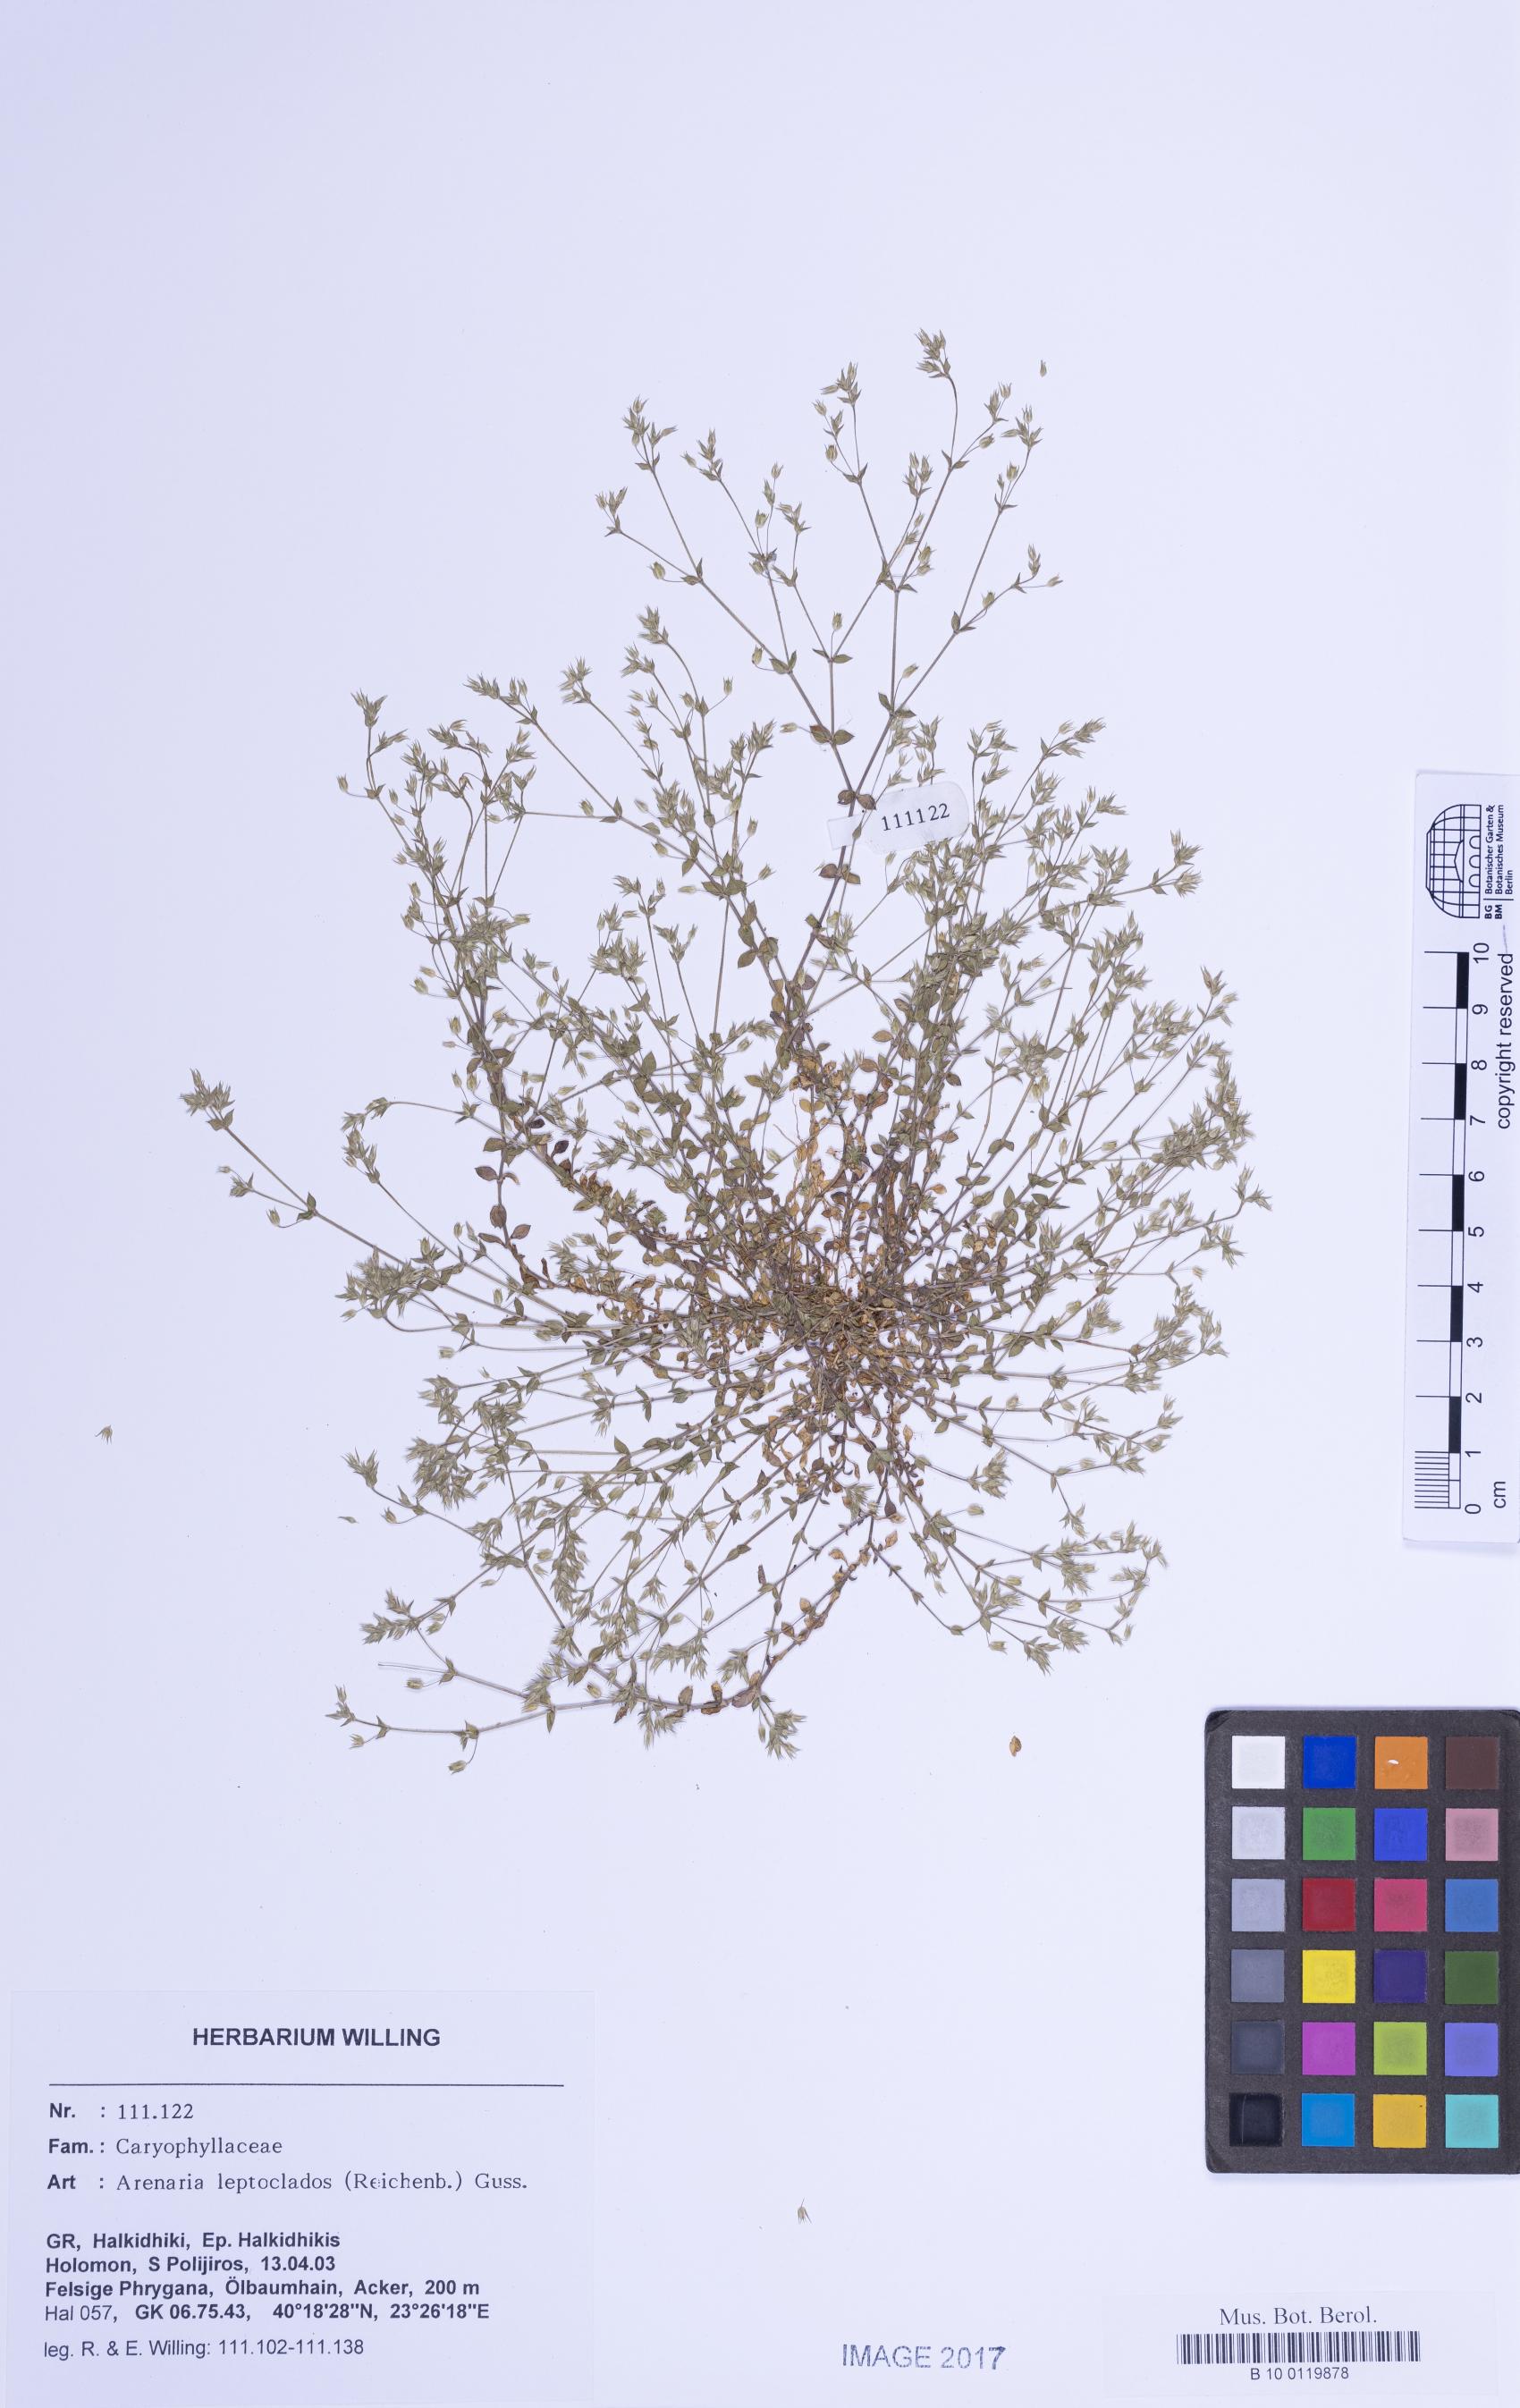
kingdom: Plantae
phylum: Tracheophyta
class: Magnoliopsida
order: Caryophyllales
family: Caryophyllaceae
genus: Arenaria
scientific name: Arenaria leptoclados
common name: Thyme-leaved sandwort
